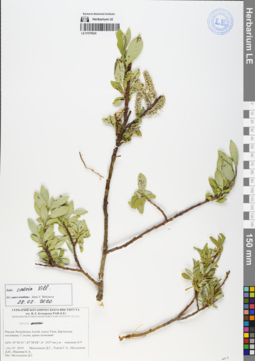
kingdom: Plantae
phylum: Tracheophyta
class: Magnoliopsida
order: Malpighiales
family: Salicaceae
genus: Salix
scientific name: Salix caesia
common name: Blue willow
